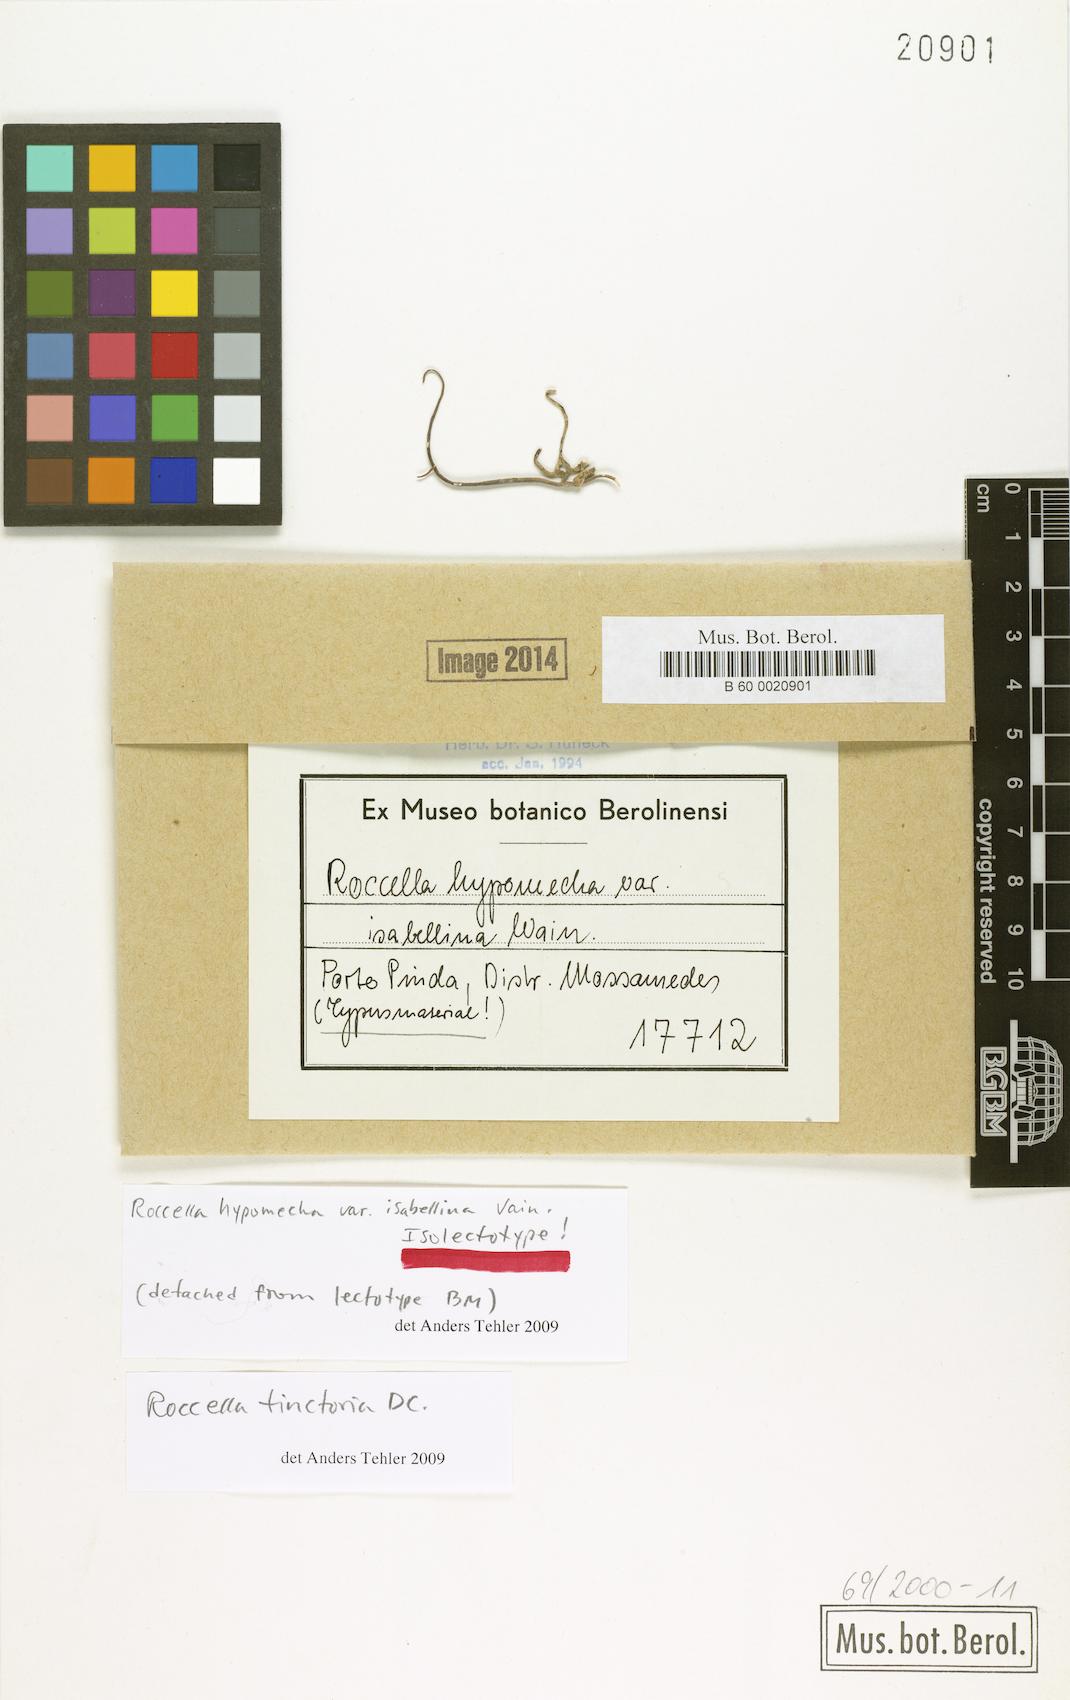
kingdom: Fungi
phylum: Ascomycota
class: Arthoniomycetes
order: Arthoniales
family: Roccellaceae
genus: Roccellina
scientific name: Roccellina hypomecha
